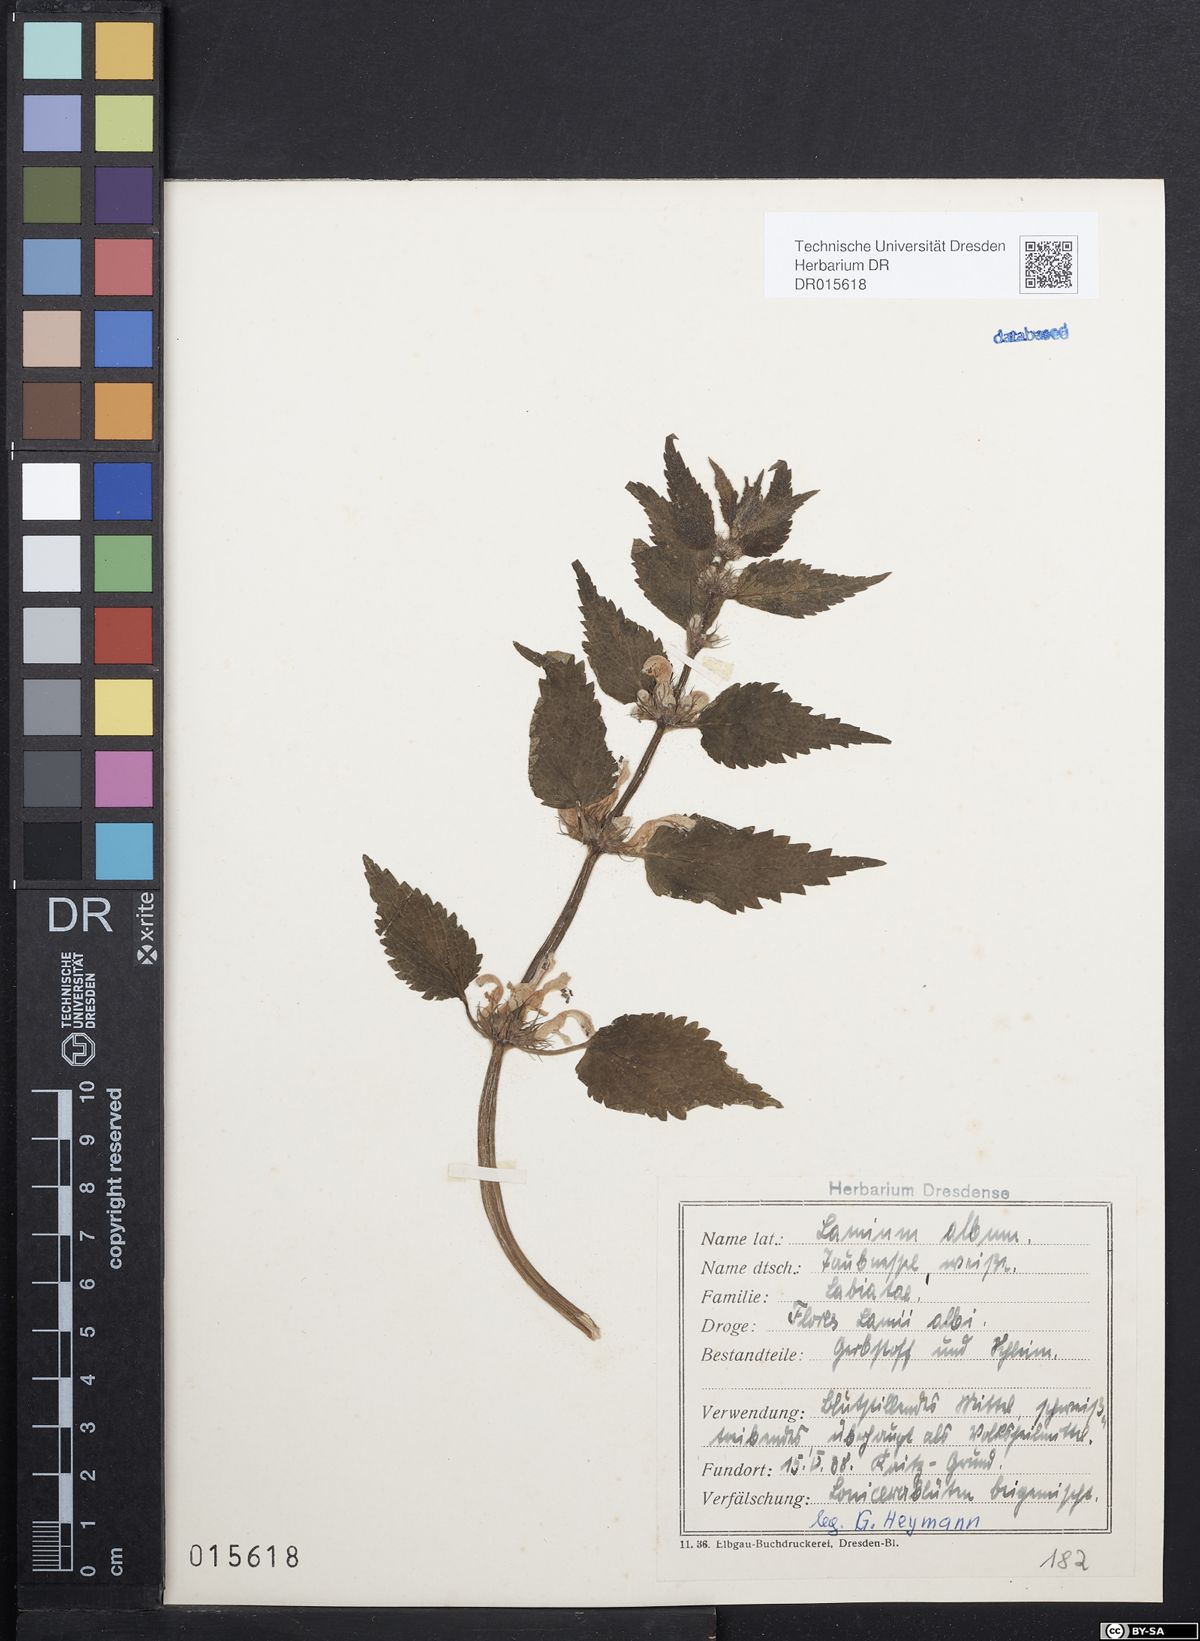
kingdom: Plantae
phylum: Tracheophyta
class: Magnoliopsida
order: Lamiales
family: Lamiaceae
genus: Lamium
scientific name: Lamium album
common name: White dead-nettle
